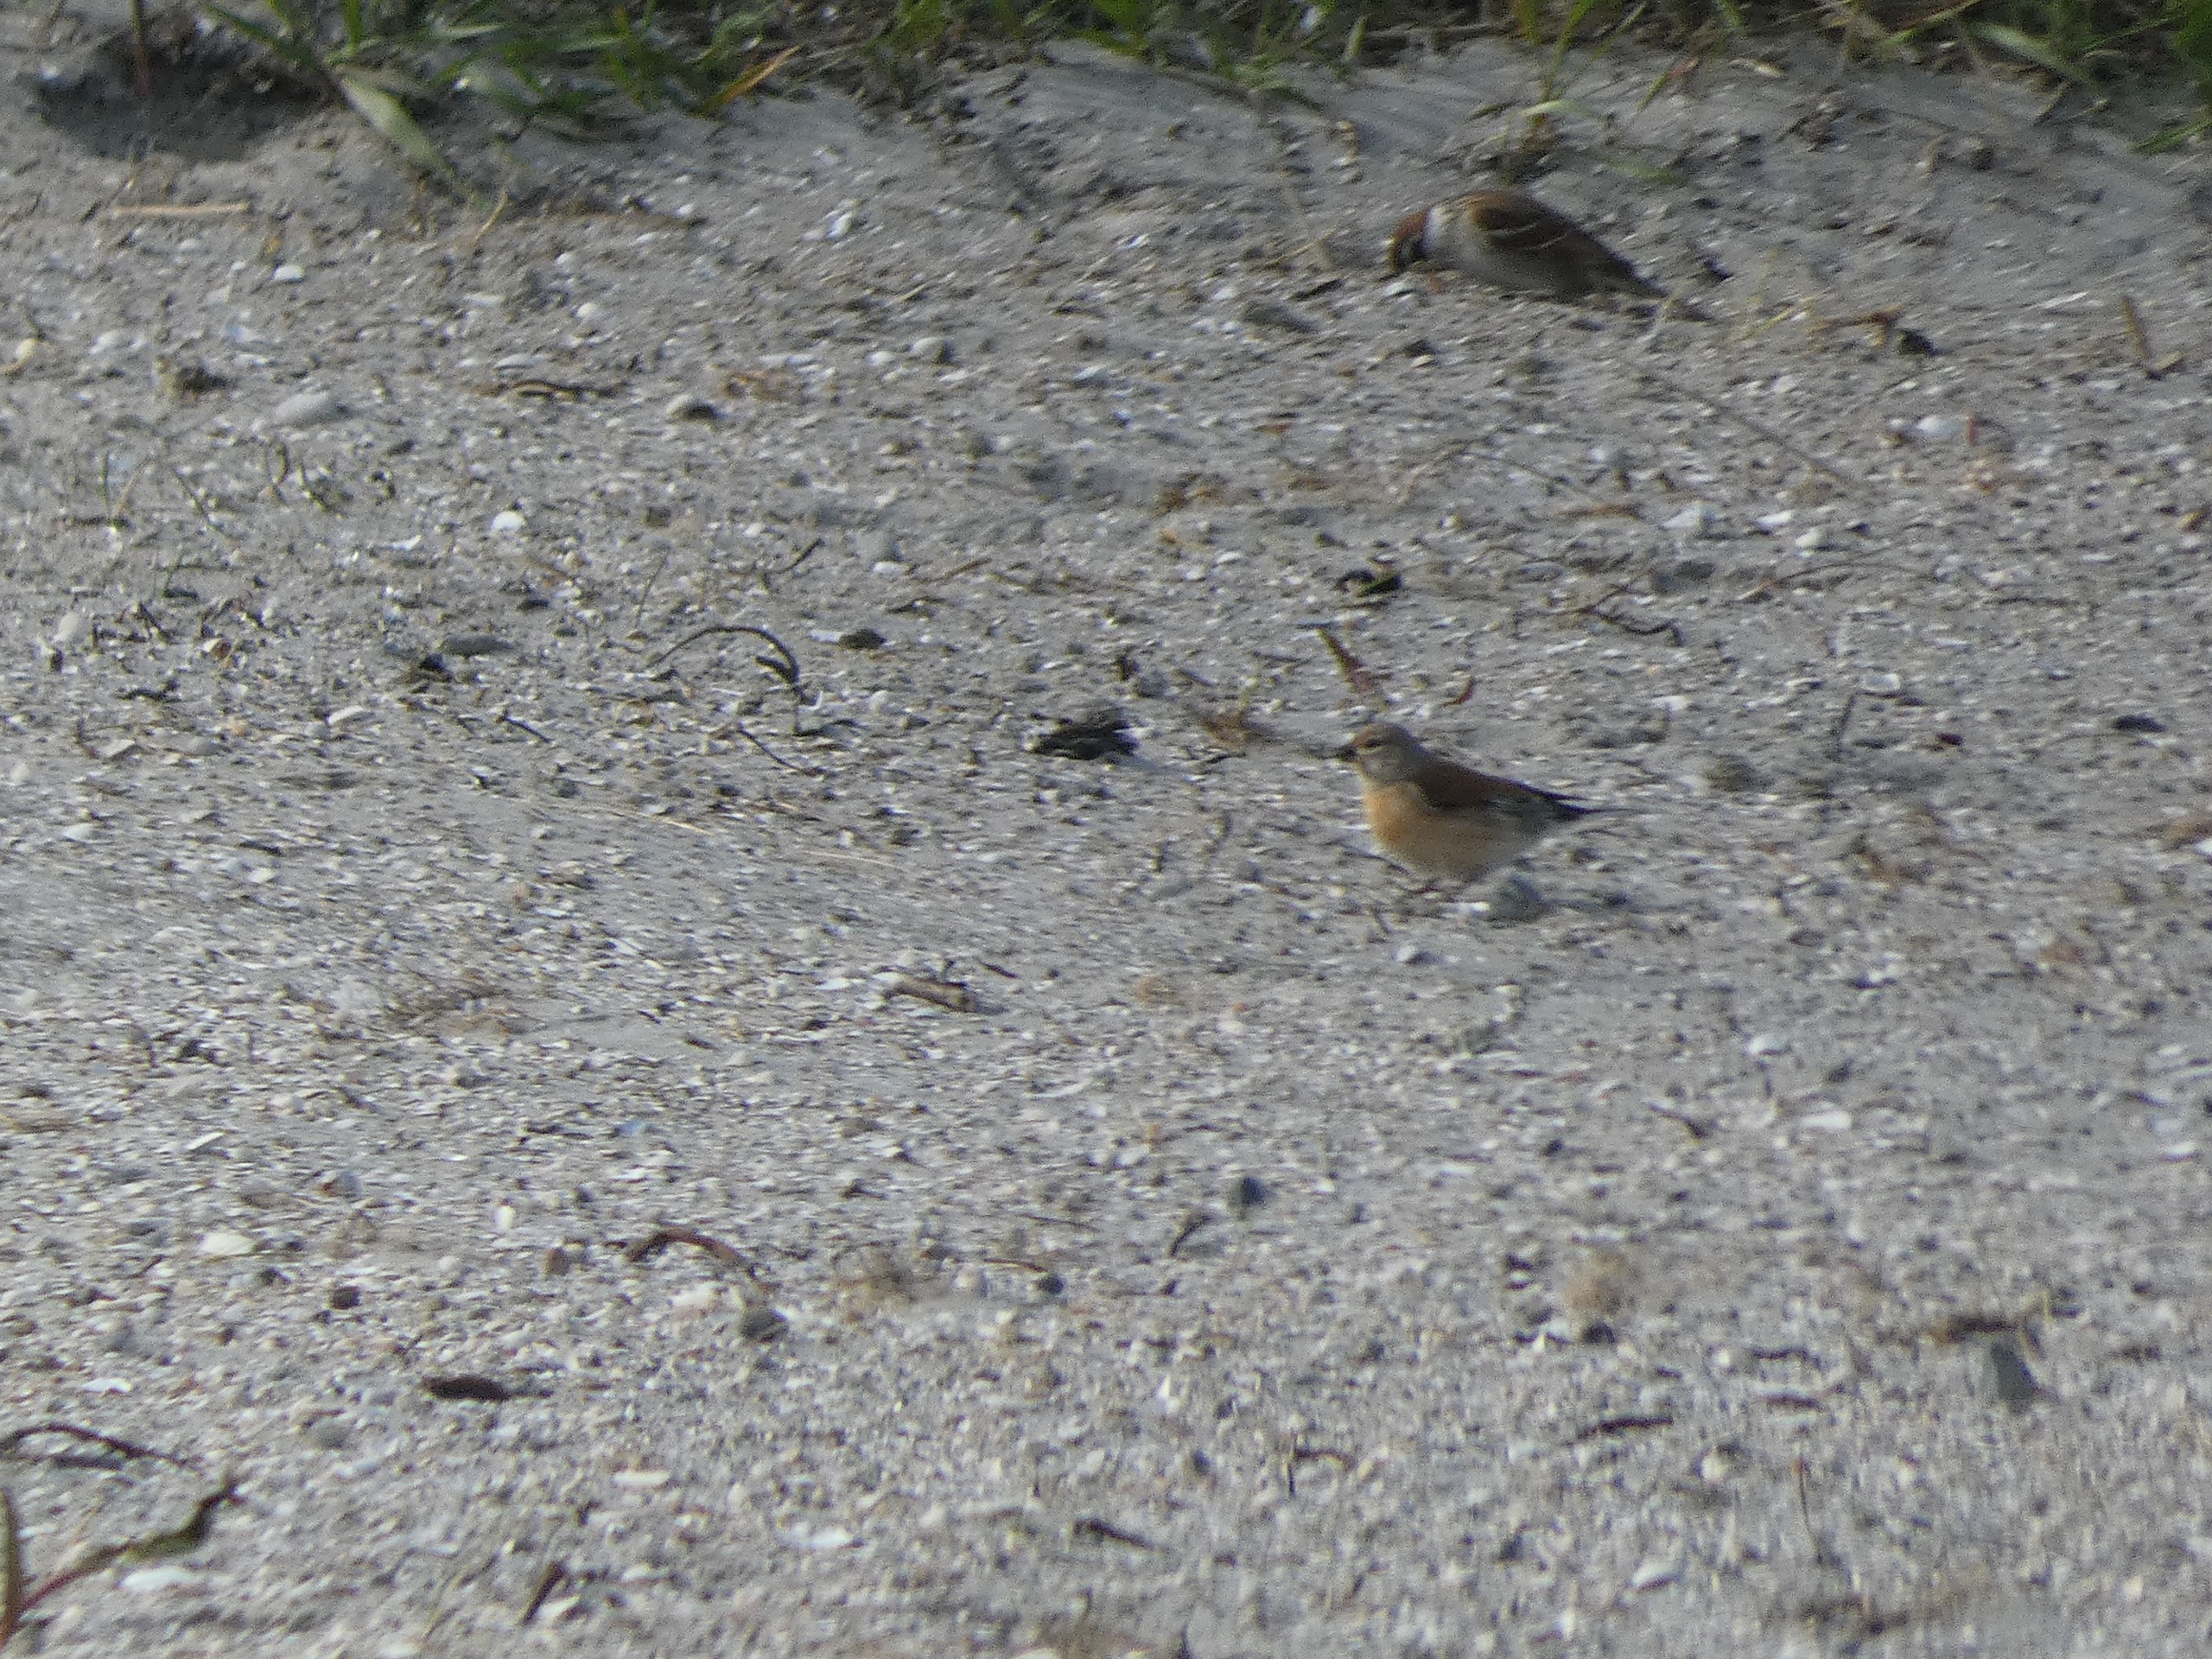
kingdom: Animalia
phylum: Chordata
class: Aves
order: Passeriformes
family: Fringillidae
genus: Linaria
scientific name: Linaria cannabina
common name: Tornirisk
